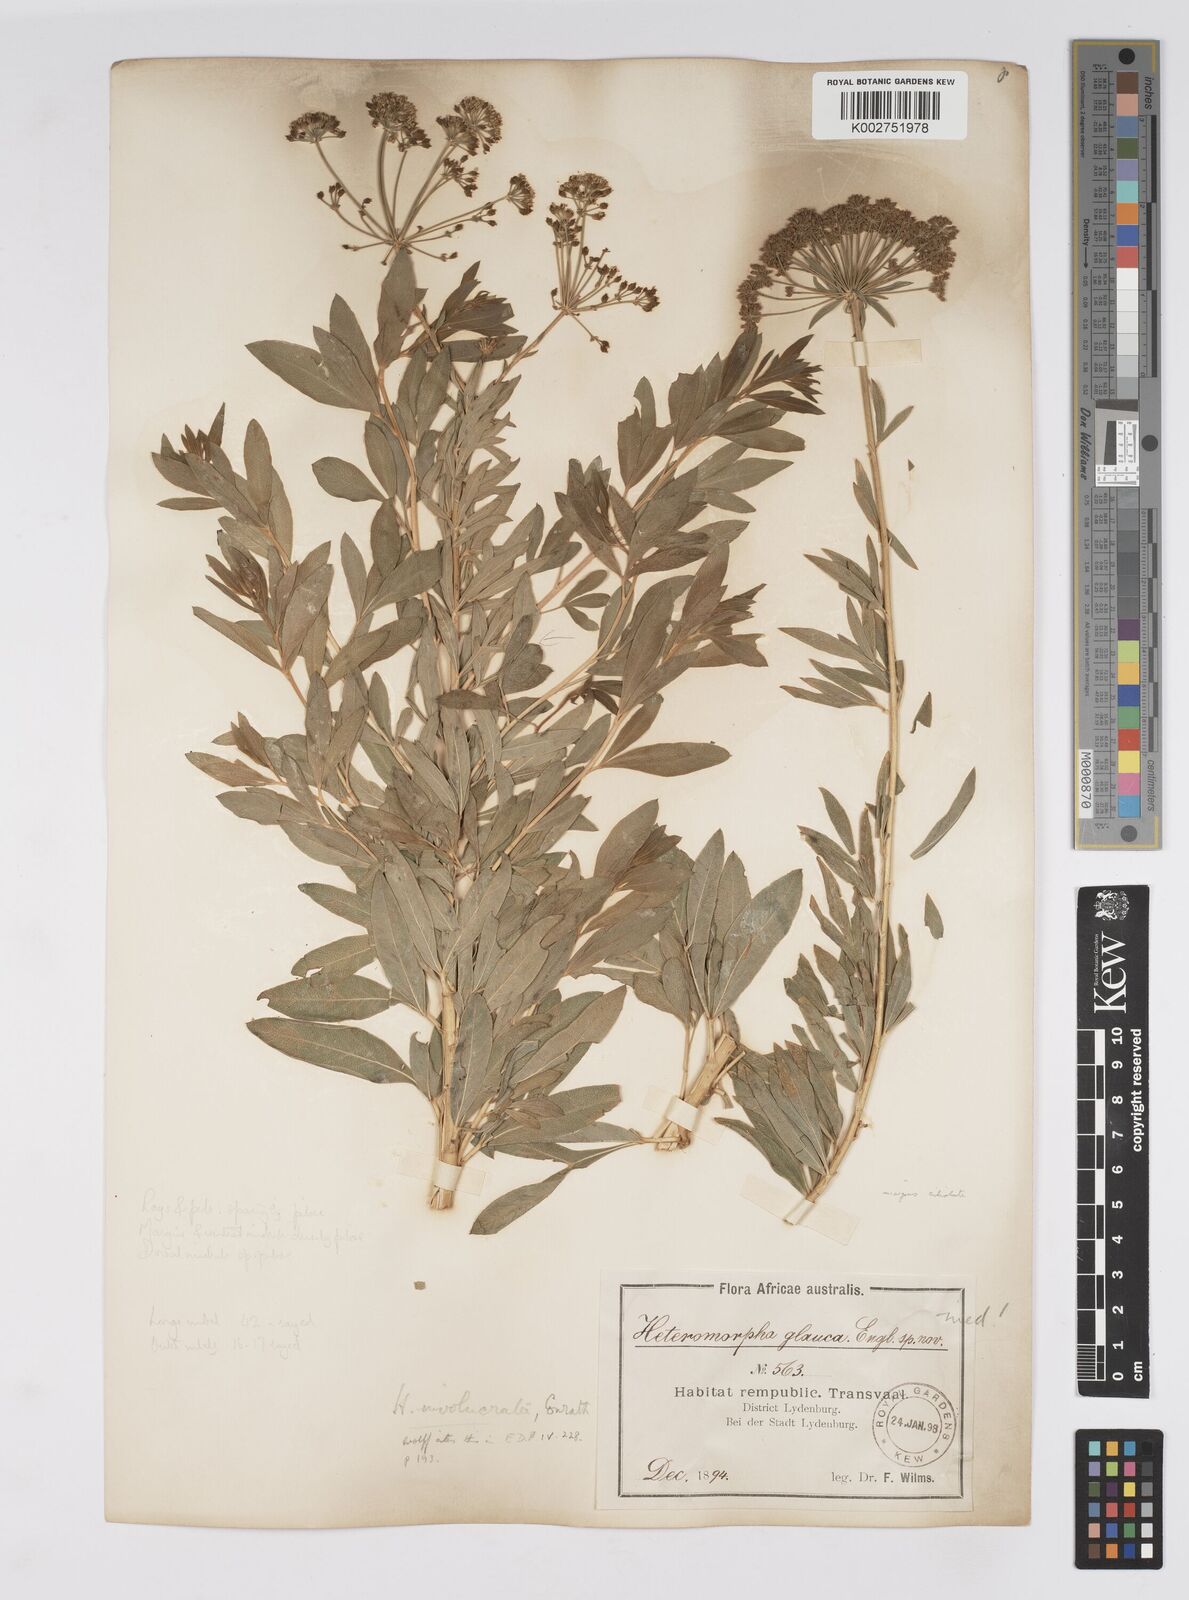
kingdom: Plantae
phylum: Tracheophyta
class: Magnoliopsida
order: Apiales
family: Apiaceae
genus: Heteromorpha
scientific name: Heteromorpha involucrata
